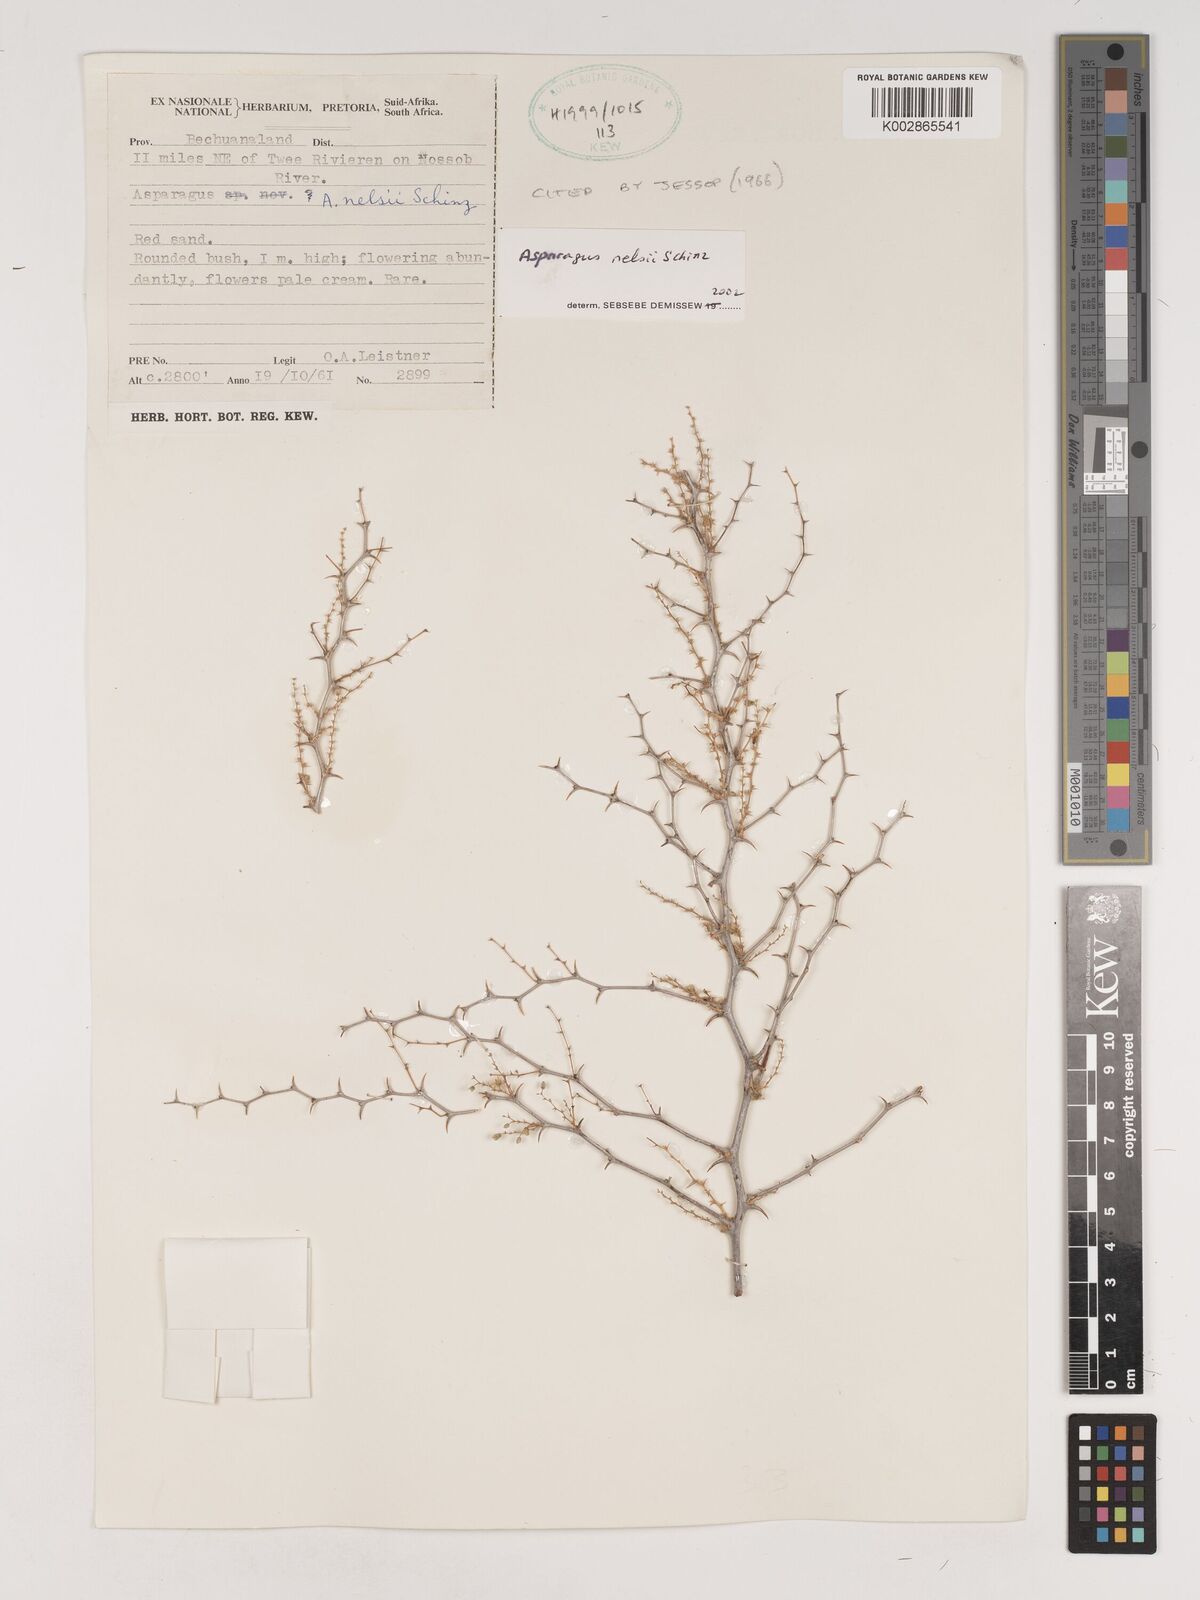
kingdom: Plantae
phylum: Tracheophyta
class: Liliopsida
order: Asparagales
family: Asparagaceae
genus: Asparagus
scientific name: Asparagus nelsii
